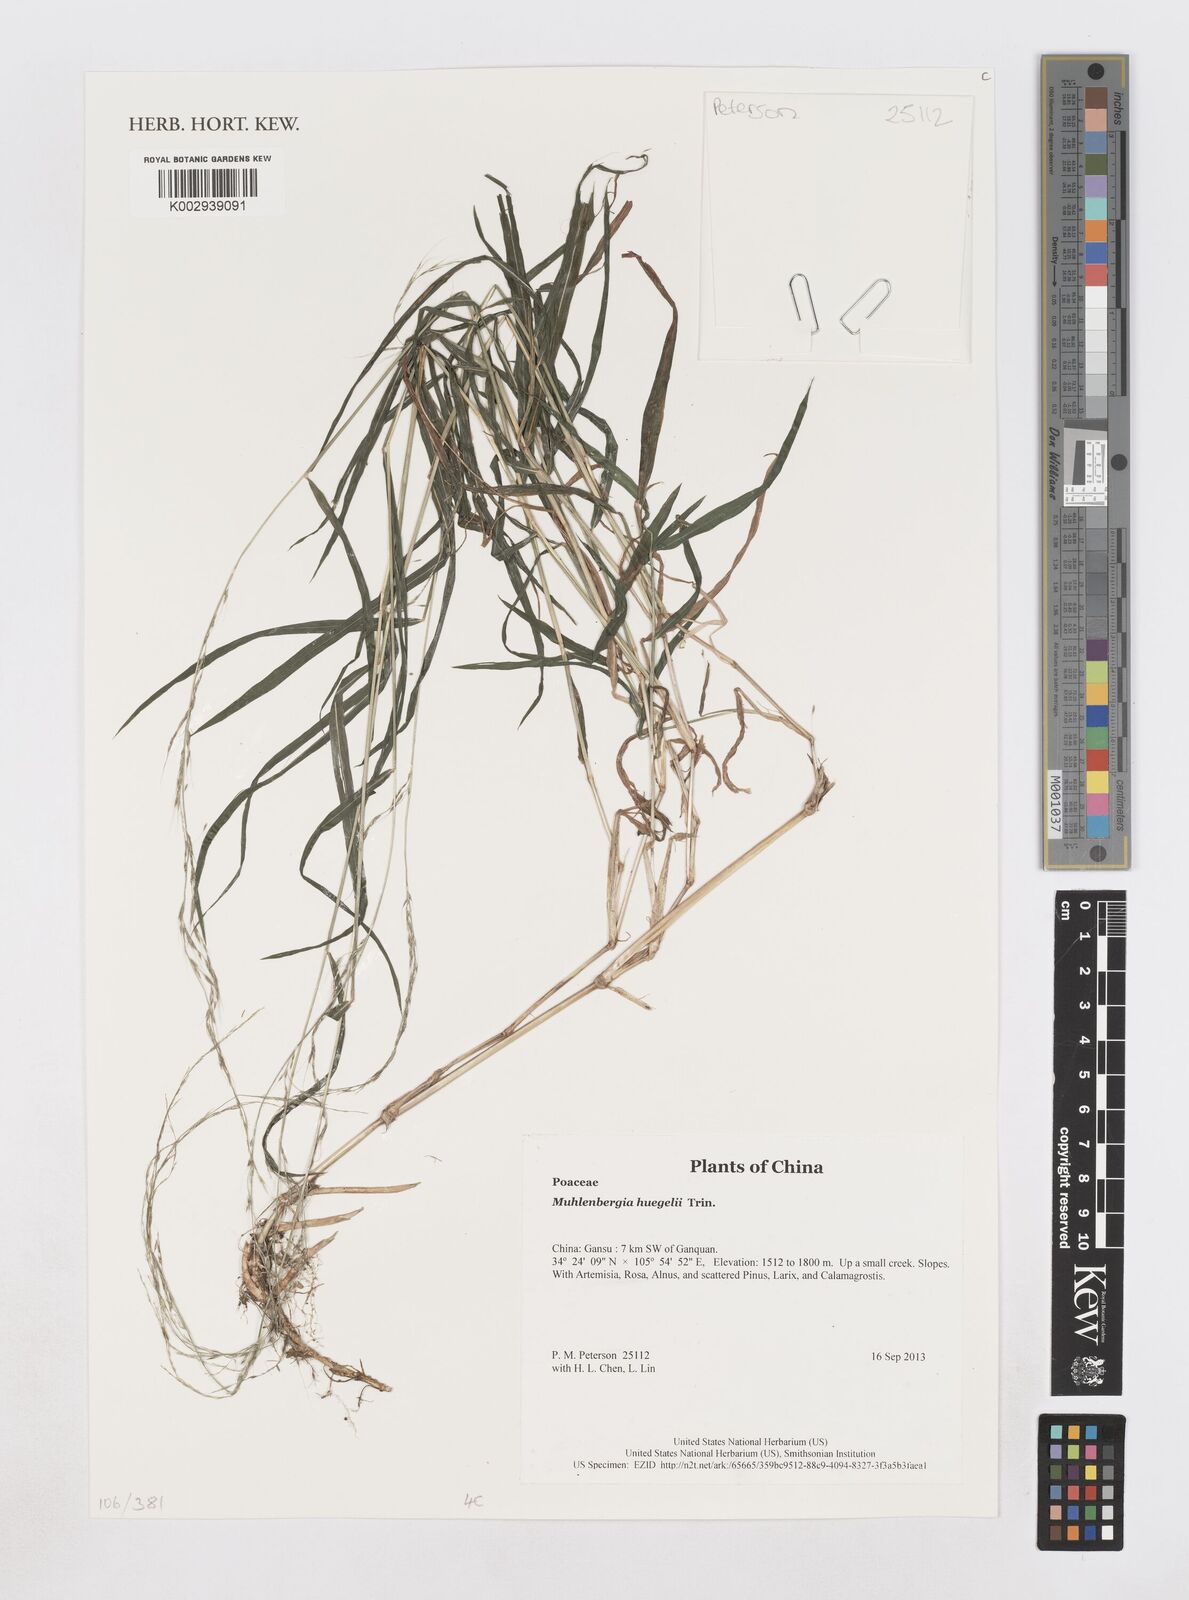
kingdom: Plantae
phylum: Tracheophyta
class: Liliopsida
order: Poales
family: Poaceae
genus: Muhlenbergia
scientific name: Muhlenbergia huegelii
